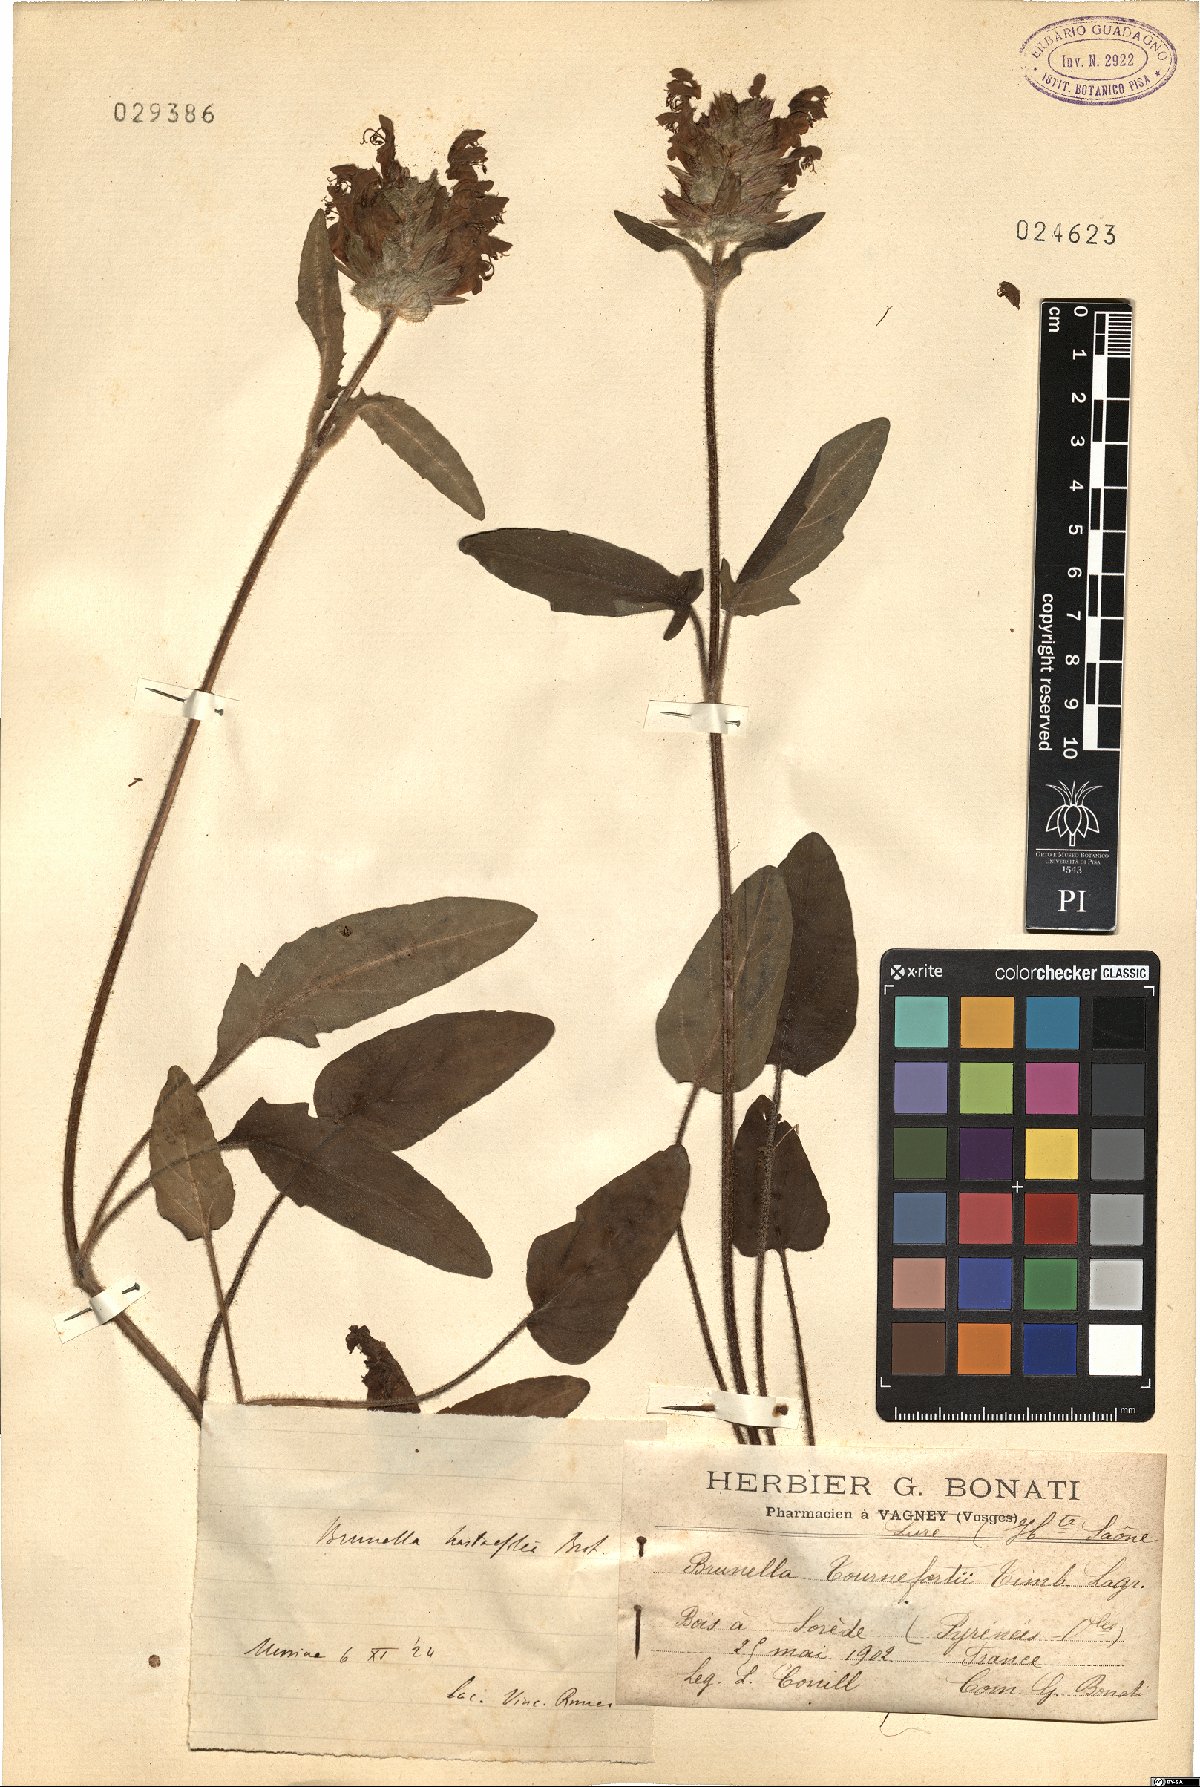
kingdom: Plantae
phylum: Tracheophyta
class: Magnoliopsida
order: Lamiales
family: Lamiaceae
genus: Prunella
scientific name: Prunella grandiflora
